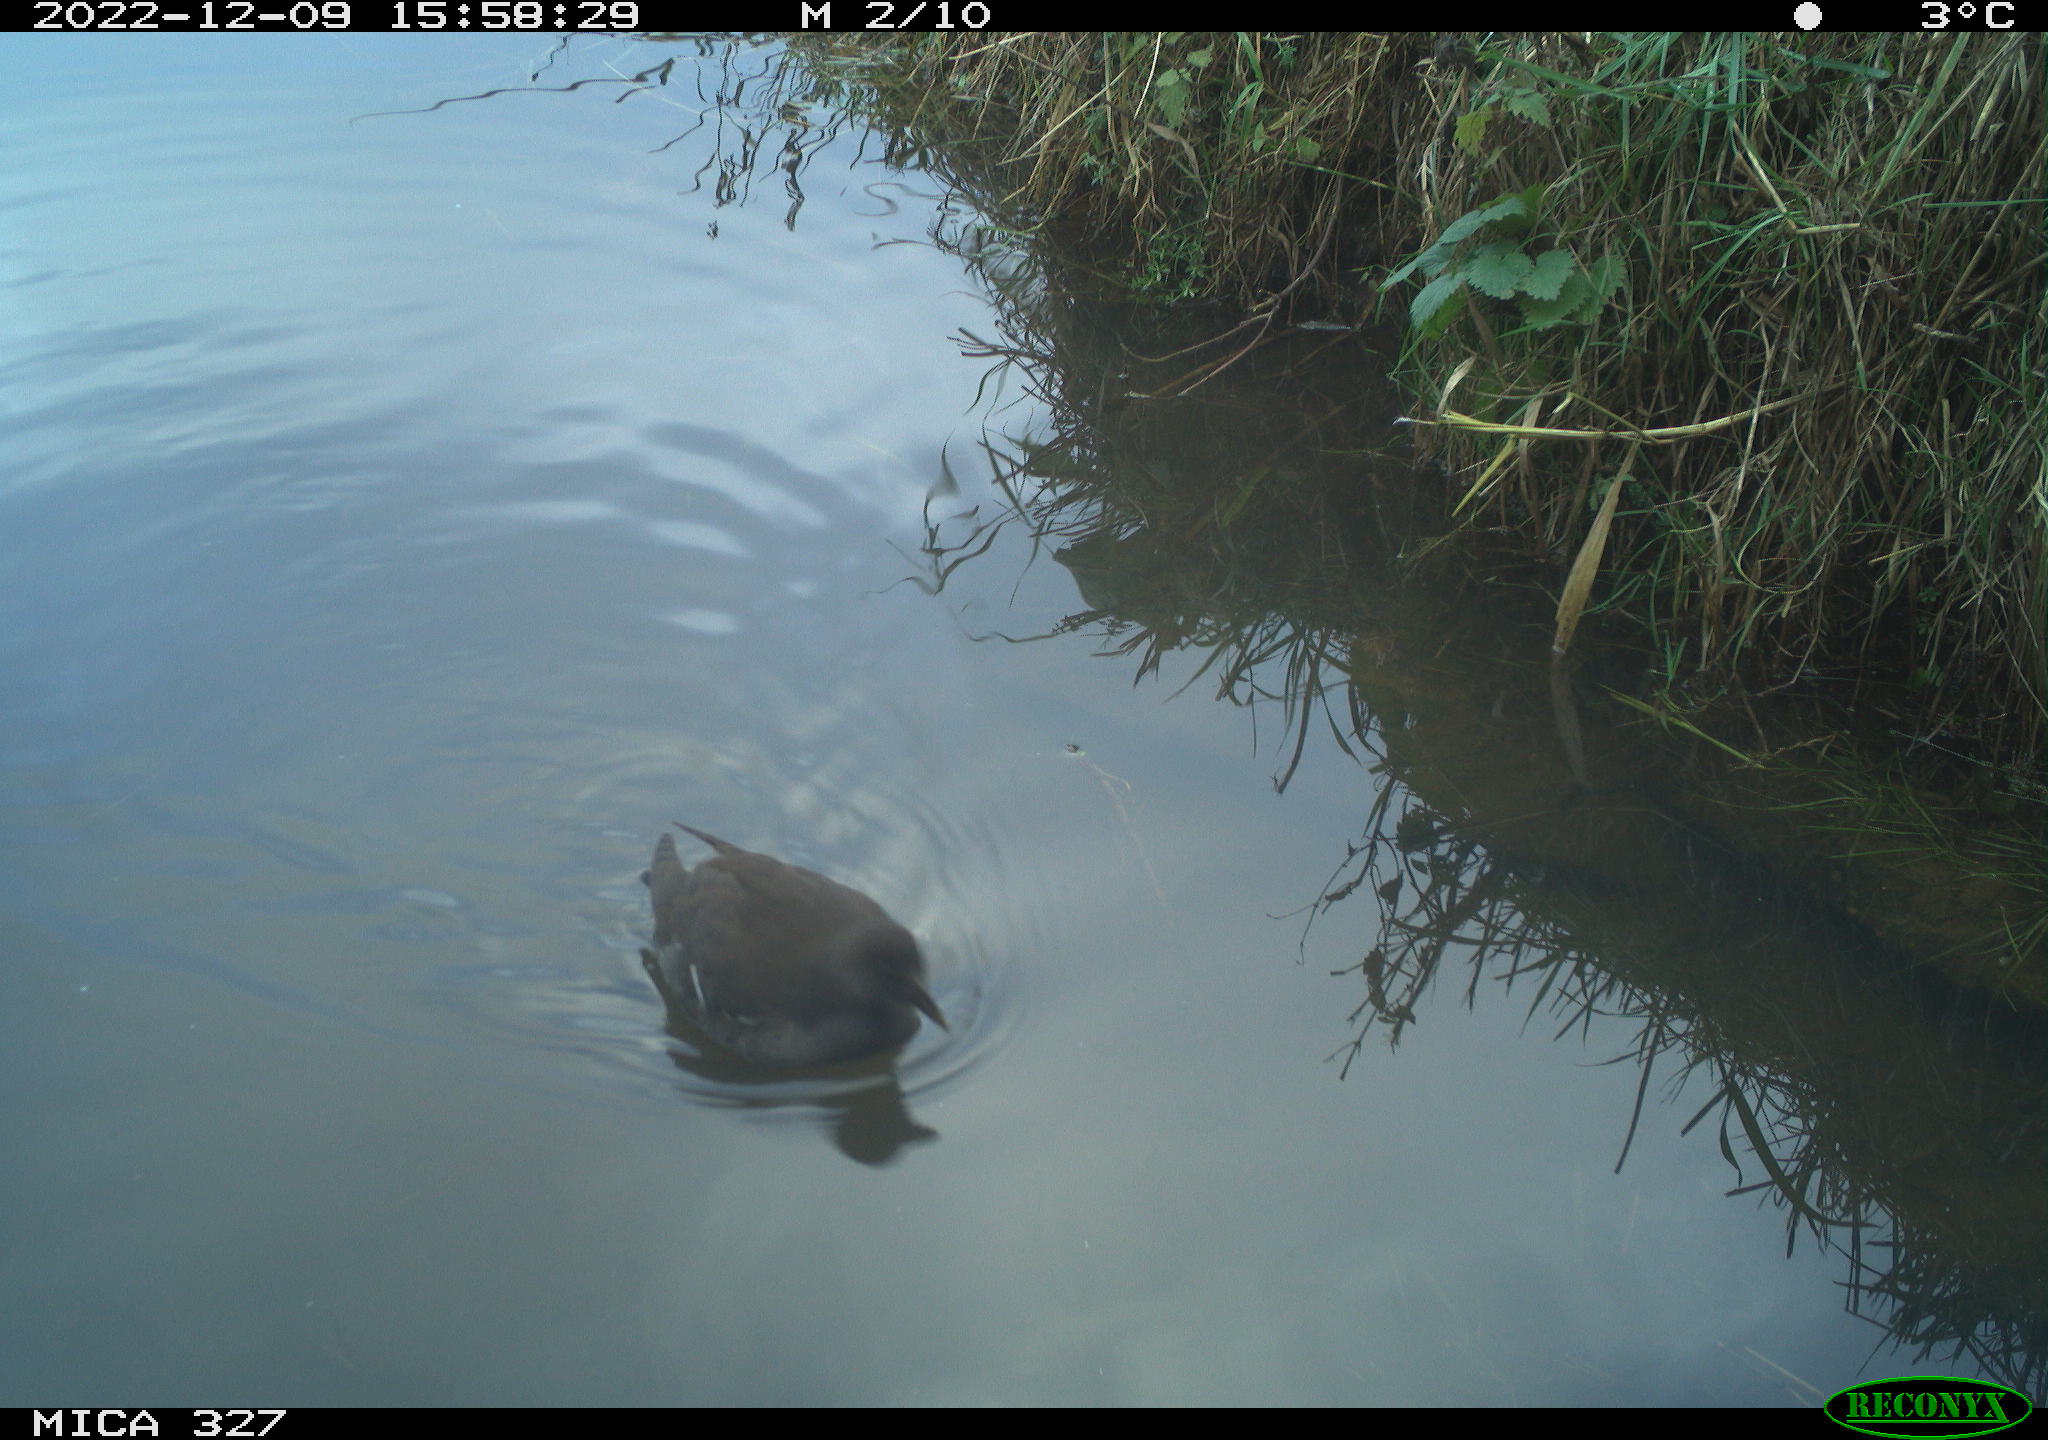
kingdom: Animalia
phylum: Chordata
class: Aves
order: Gruiformes
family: Rallidae
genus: Gallinula
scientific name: Gallinula chloropus
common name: Common moorhen
